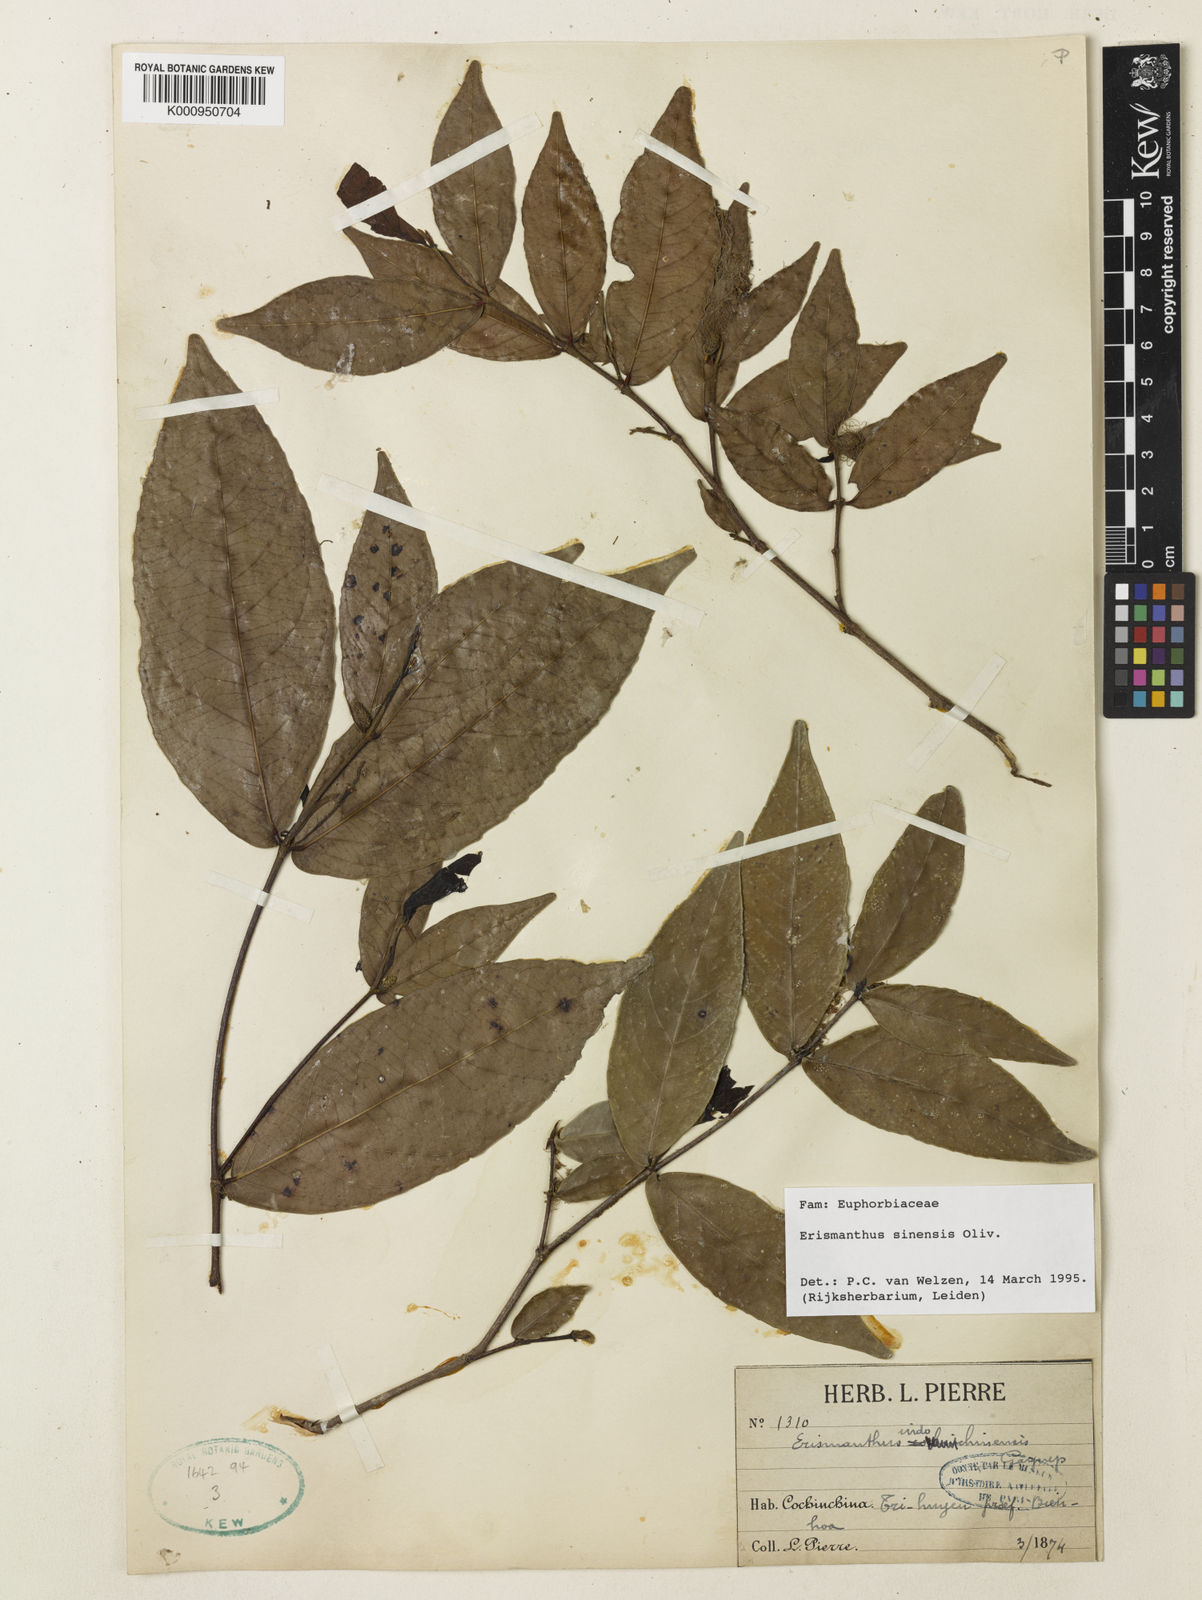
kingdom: Plantae
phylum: Tracheophyta
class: Magnoliopsida
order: Malpighiales
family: Euphorbiaceae
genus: Erismanthus
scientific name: Erismanthus sinensis
